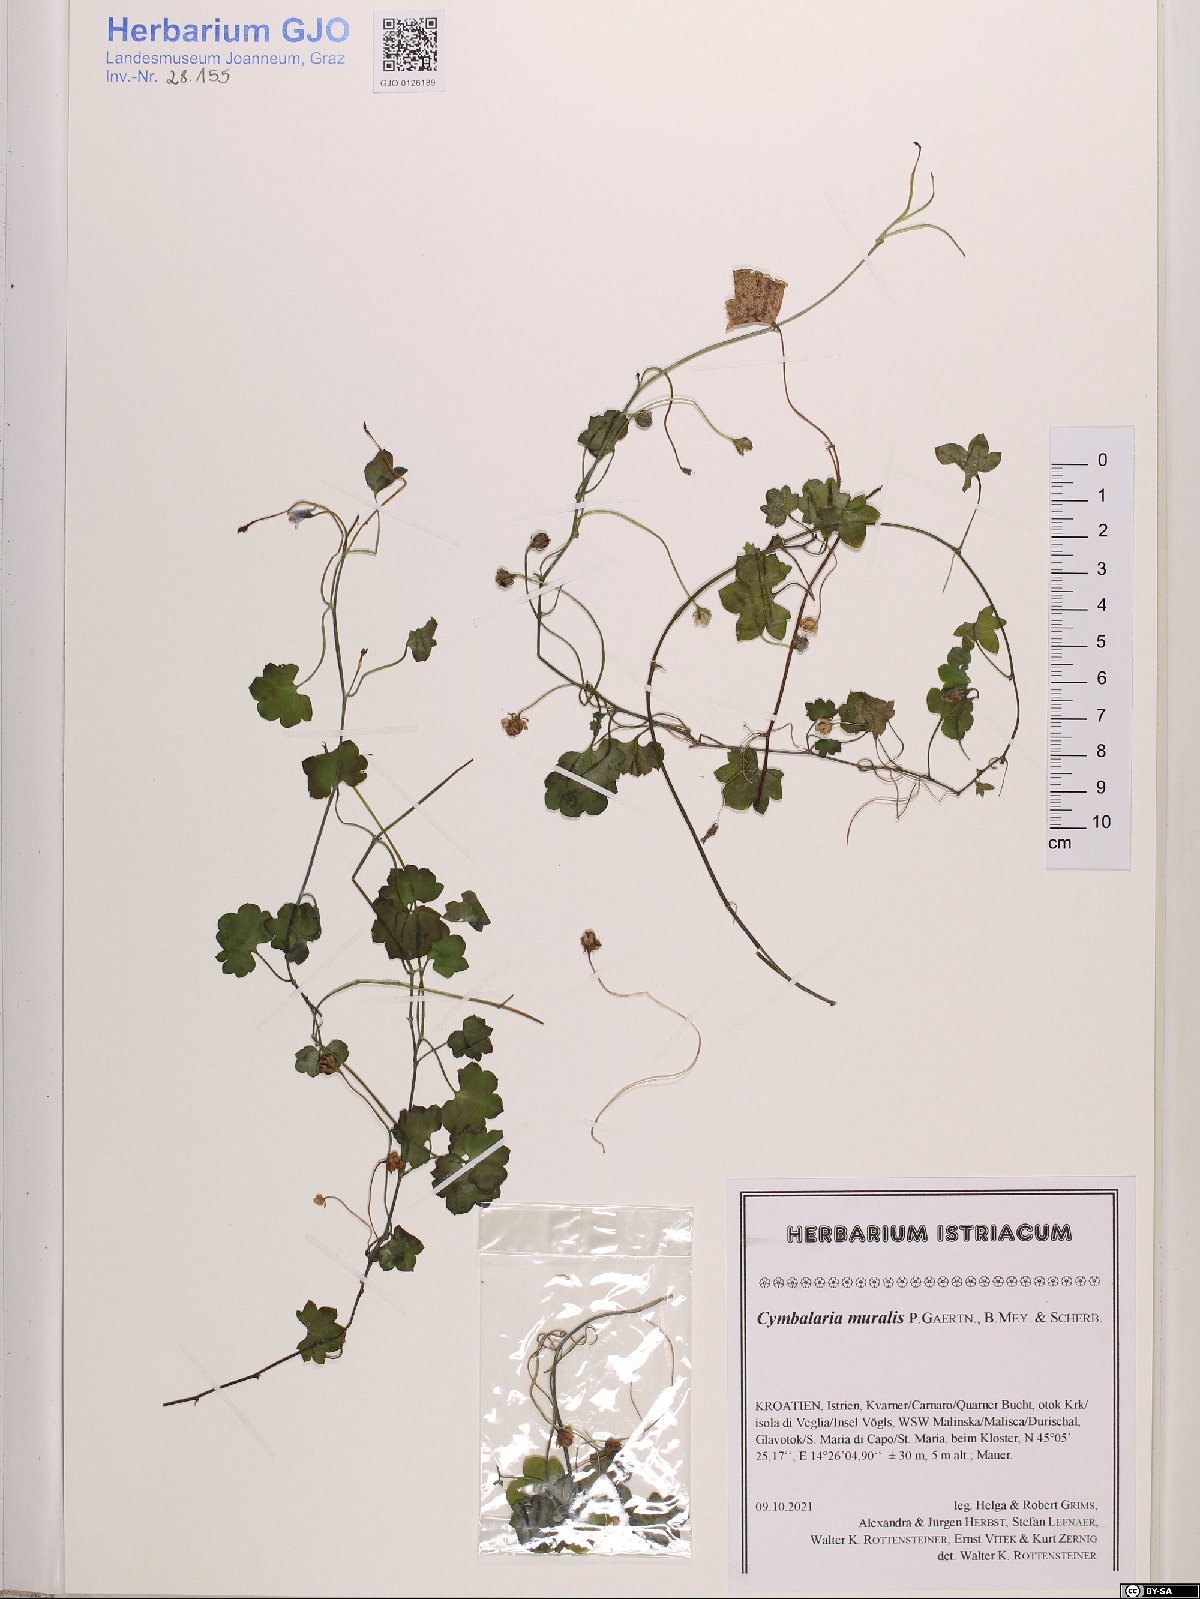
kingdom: Plantae
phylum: Tracheophyta
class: Magnoliopsida
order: Lamiales
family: Plantaginaceae
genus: Cymbalaria
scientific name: Cymbalaria muralis
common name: Ivy-leaved toadflax
